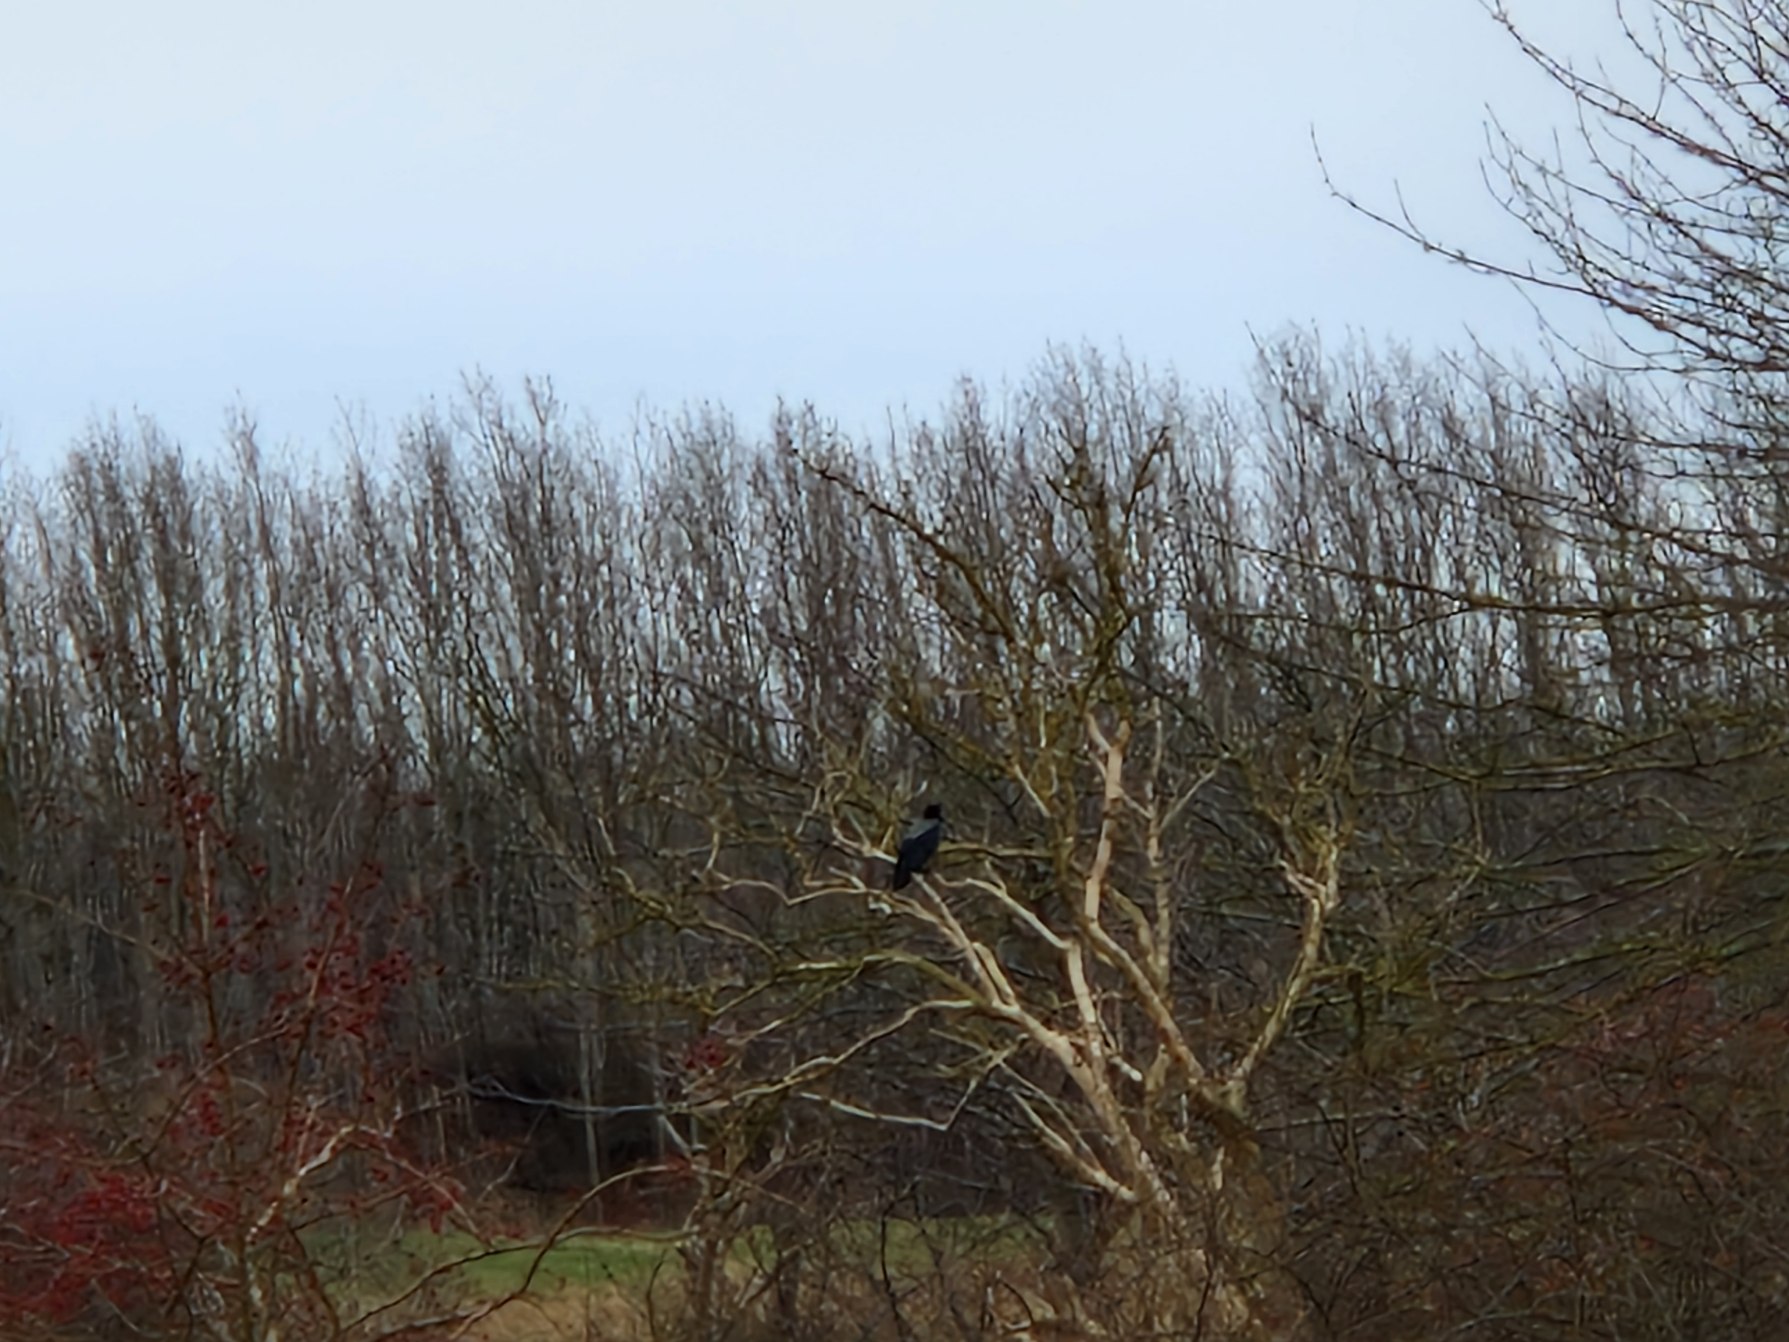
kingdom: Animalia
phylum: Chordata
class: Aves
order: Passeriformes
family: Corvidae
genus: Corvus
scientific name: Corvus cornix
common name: Gråkrage
